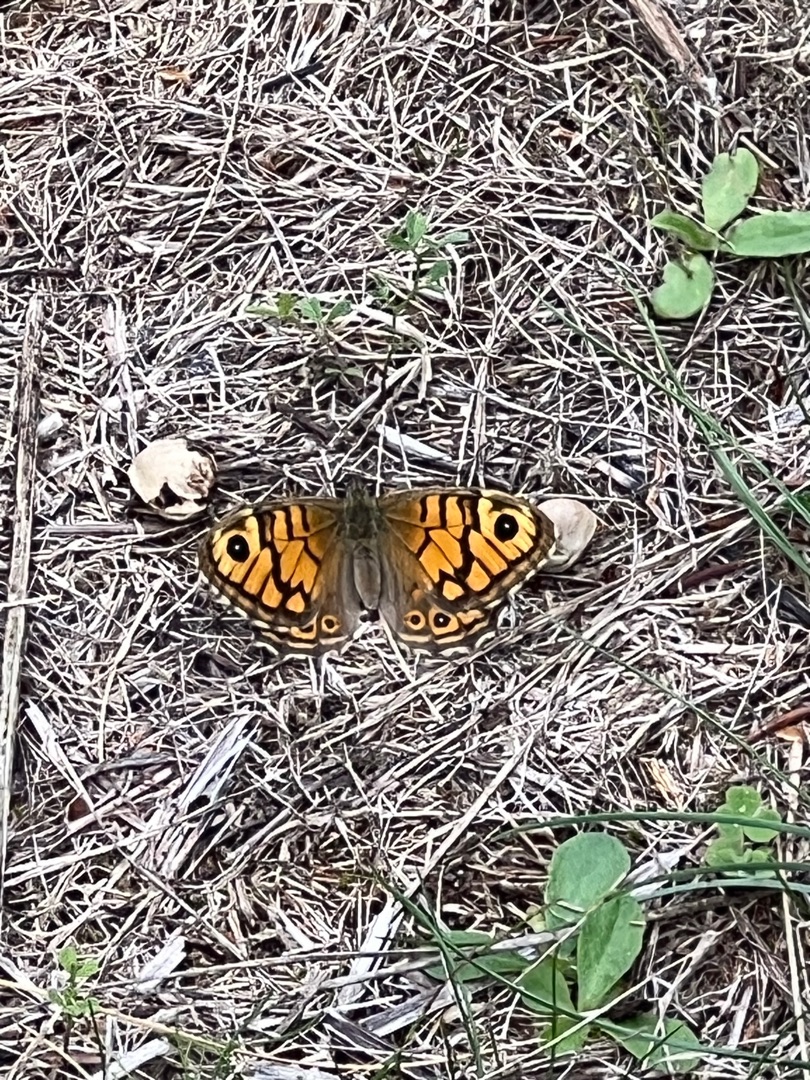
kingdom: Animalia
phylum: Arthropoda
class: Insecta
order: Lepidoptera
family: Nymphalidae
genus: Pararge
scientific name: Pararge Lasiommata megera
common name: Vejrandøje
